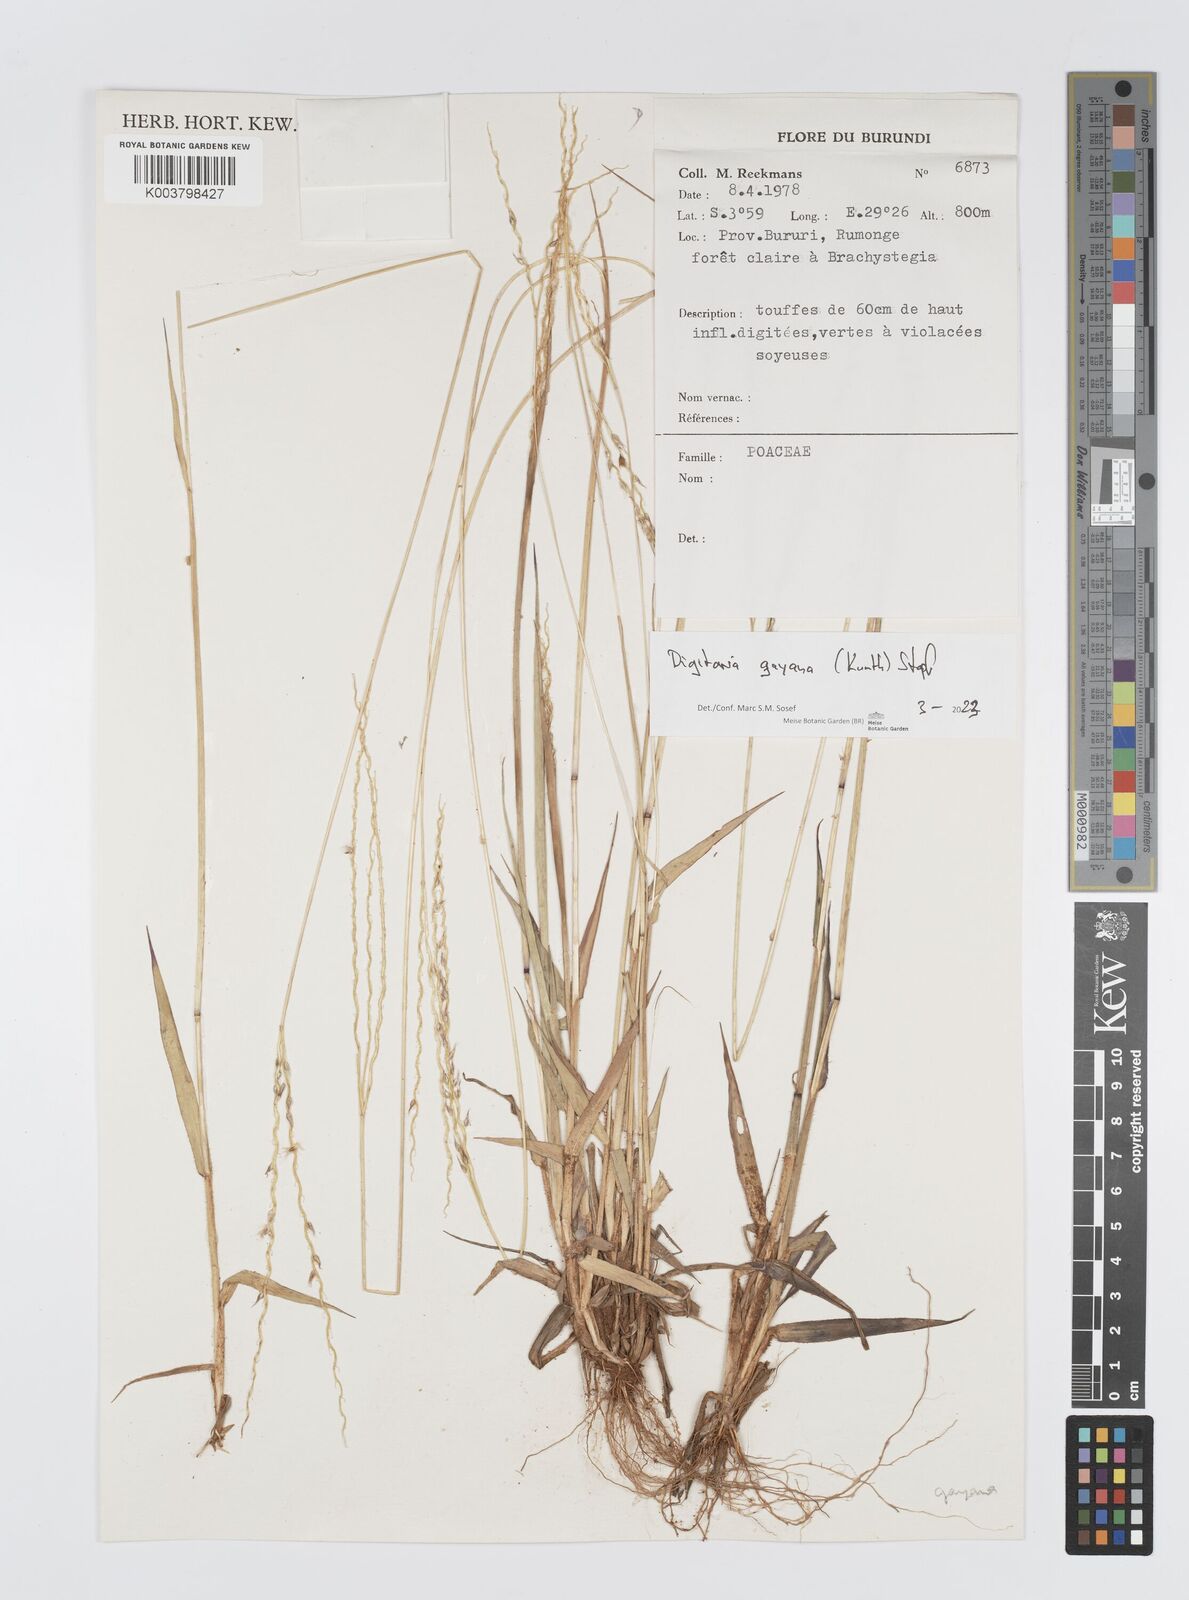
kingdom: Plantae
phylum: Tracheophyta
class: Liliopsida
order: Poales
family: Poaceae
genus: Digitaria
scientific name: Digitaria gayana
